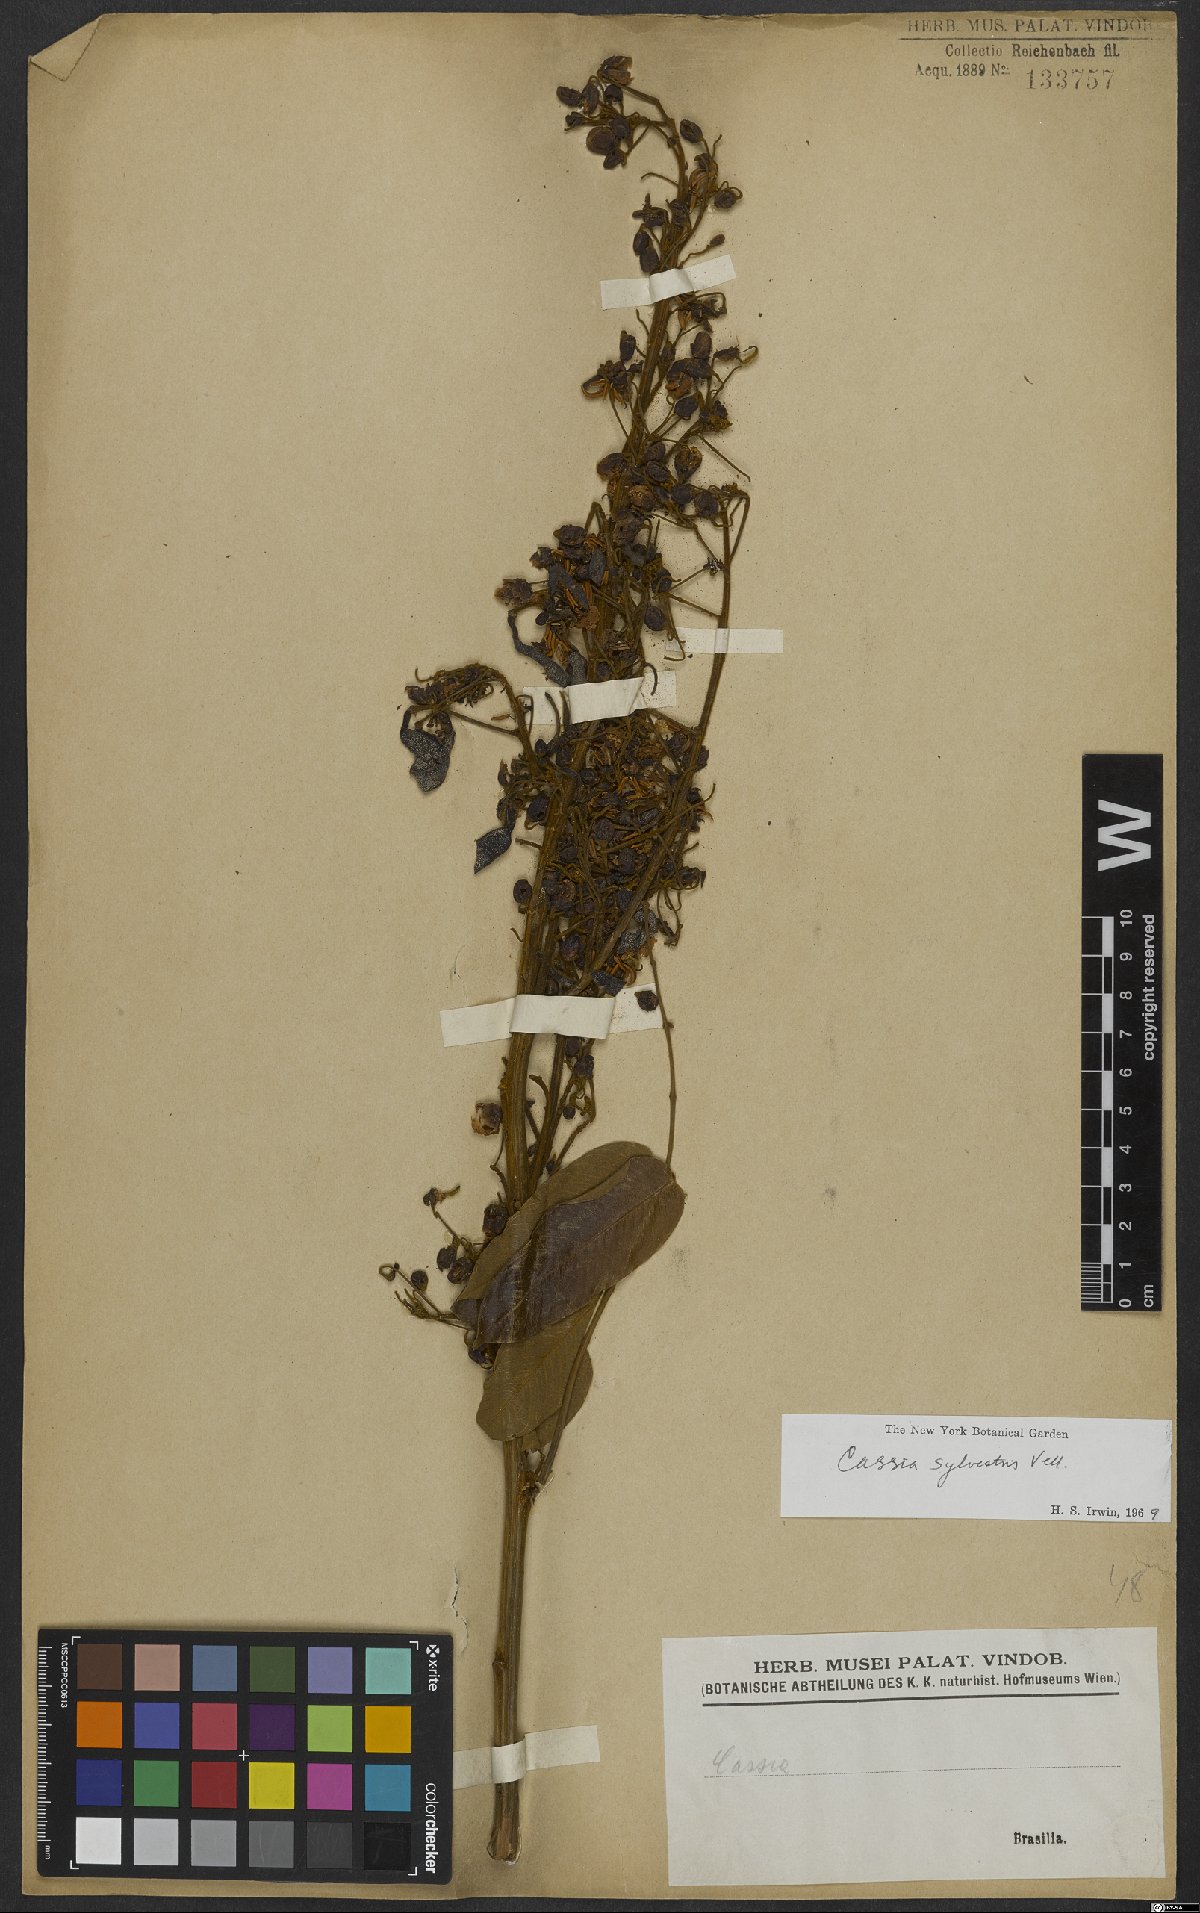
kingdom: Plantae
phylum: Tracheophyta
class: Magnoliopsida
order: Fabales
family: Fabaceae
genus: Senna
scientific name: Senna silvestris
